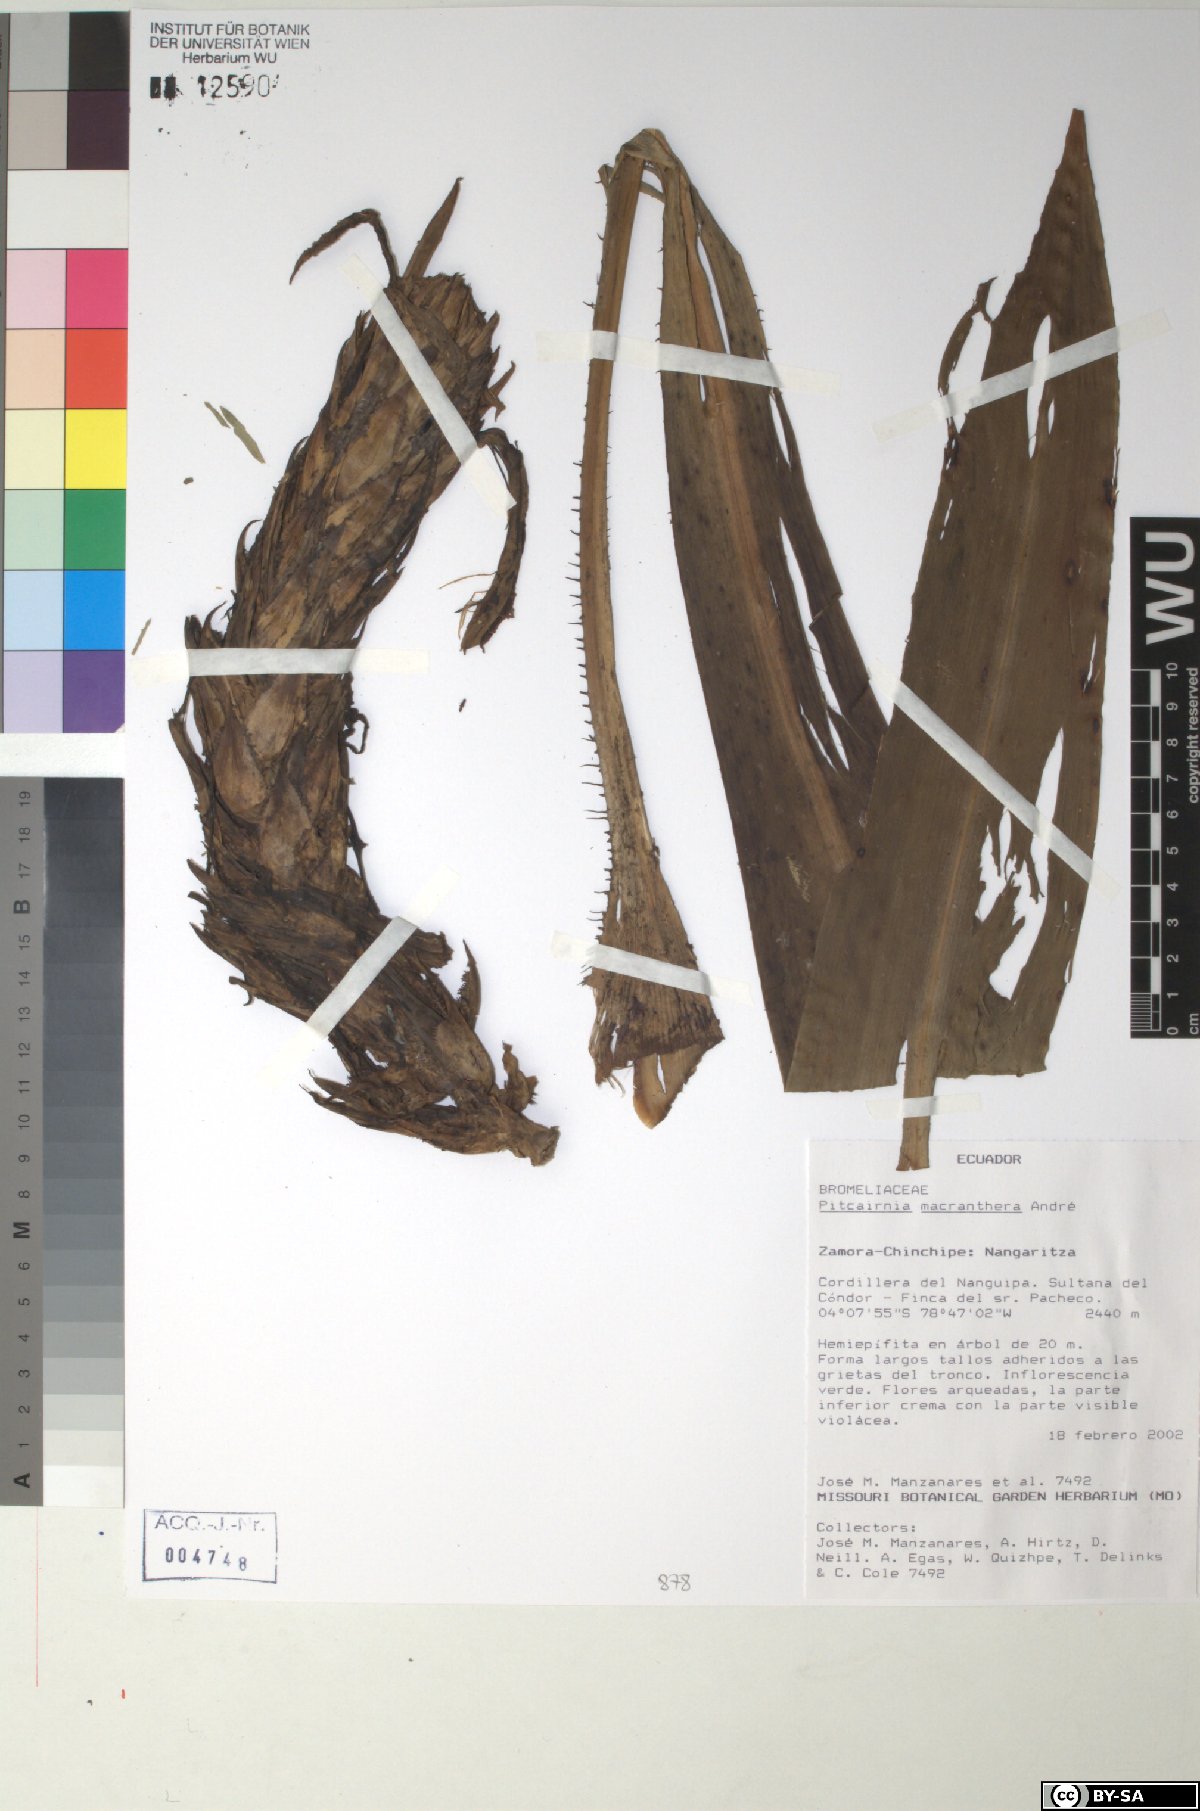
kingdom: Plantae
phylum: Tracheophyta
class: Liliopsida
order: Poales
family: Bromeliaceae
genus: Pitcairnia
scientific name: Pitcairnia macranthera
